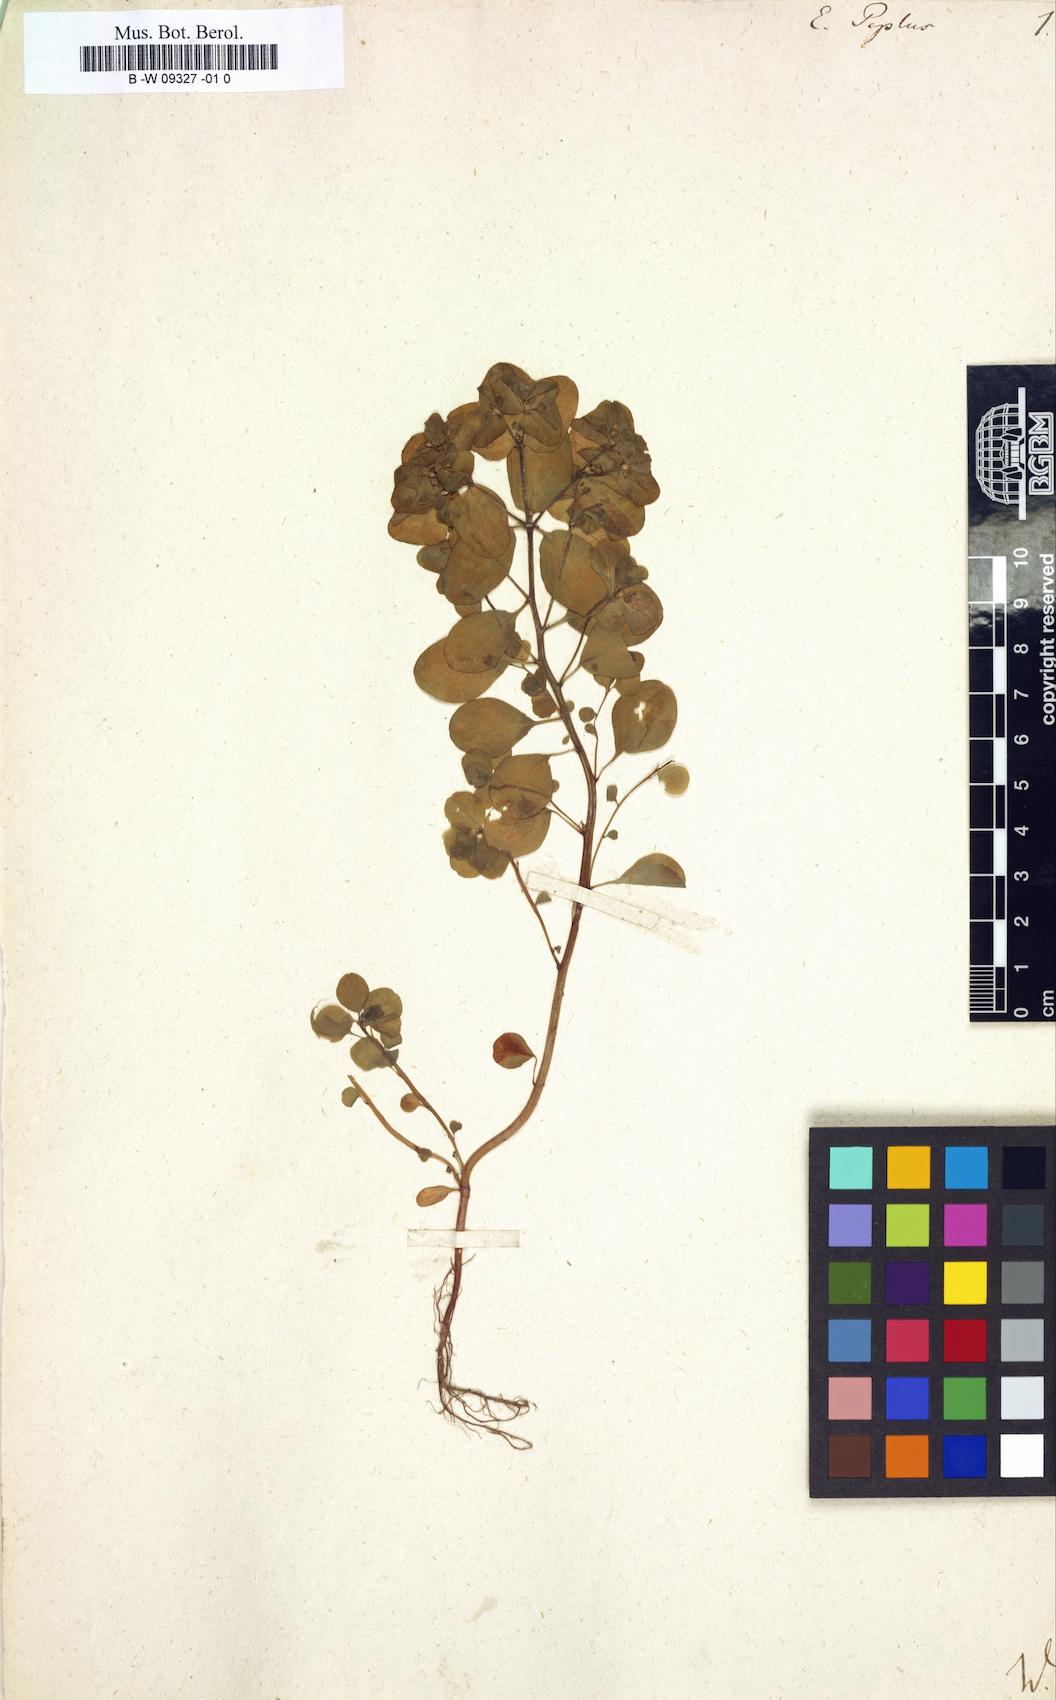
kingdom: Plantae
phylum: Tracheophyta
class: Magnoliopsida
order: Malpighiales
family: Euphorbiaceae
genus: Euphorbia
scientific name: Euphorbia peplus
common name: Petty spurge
